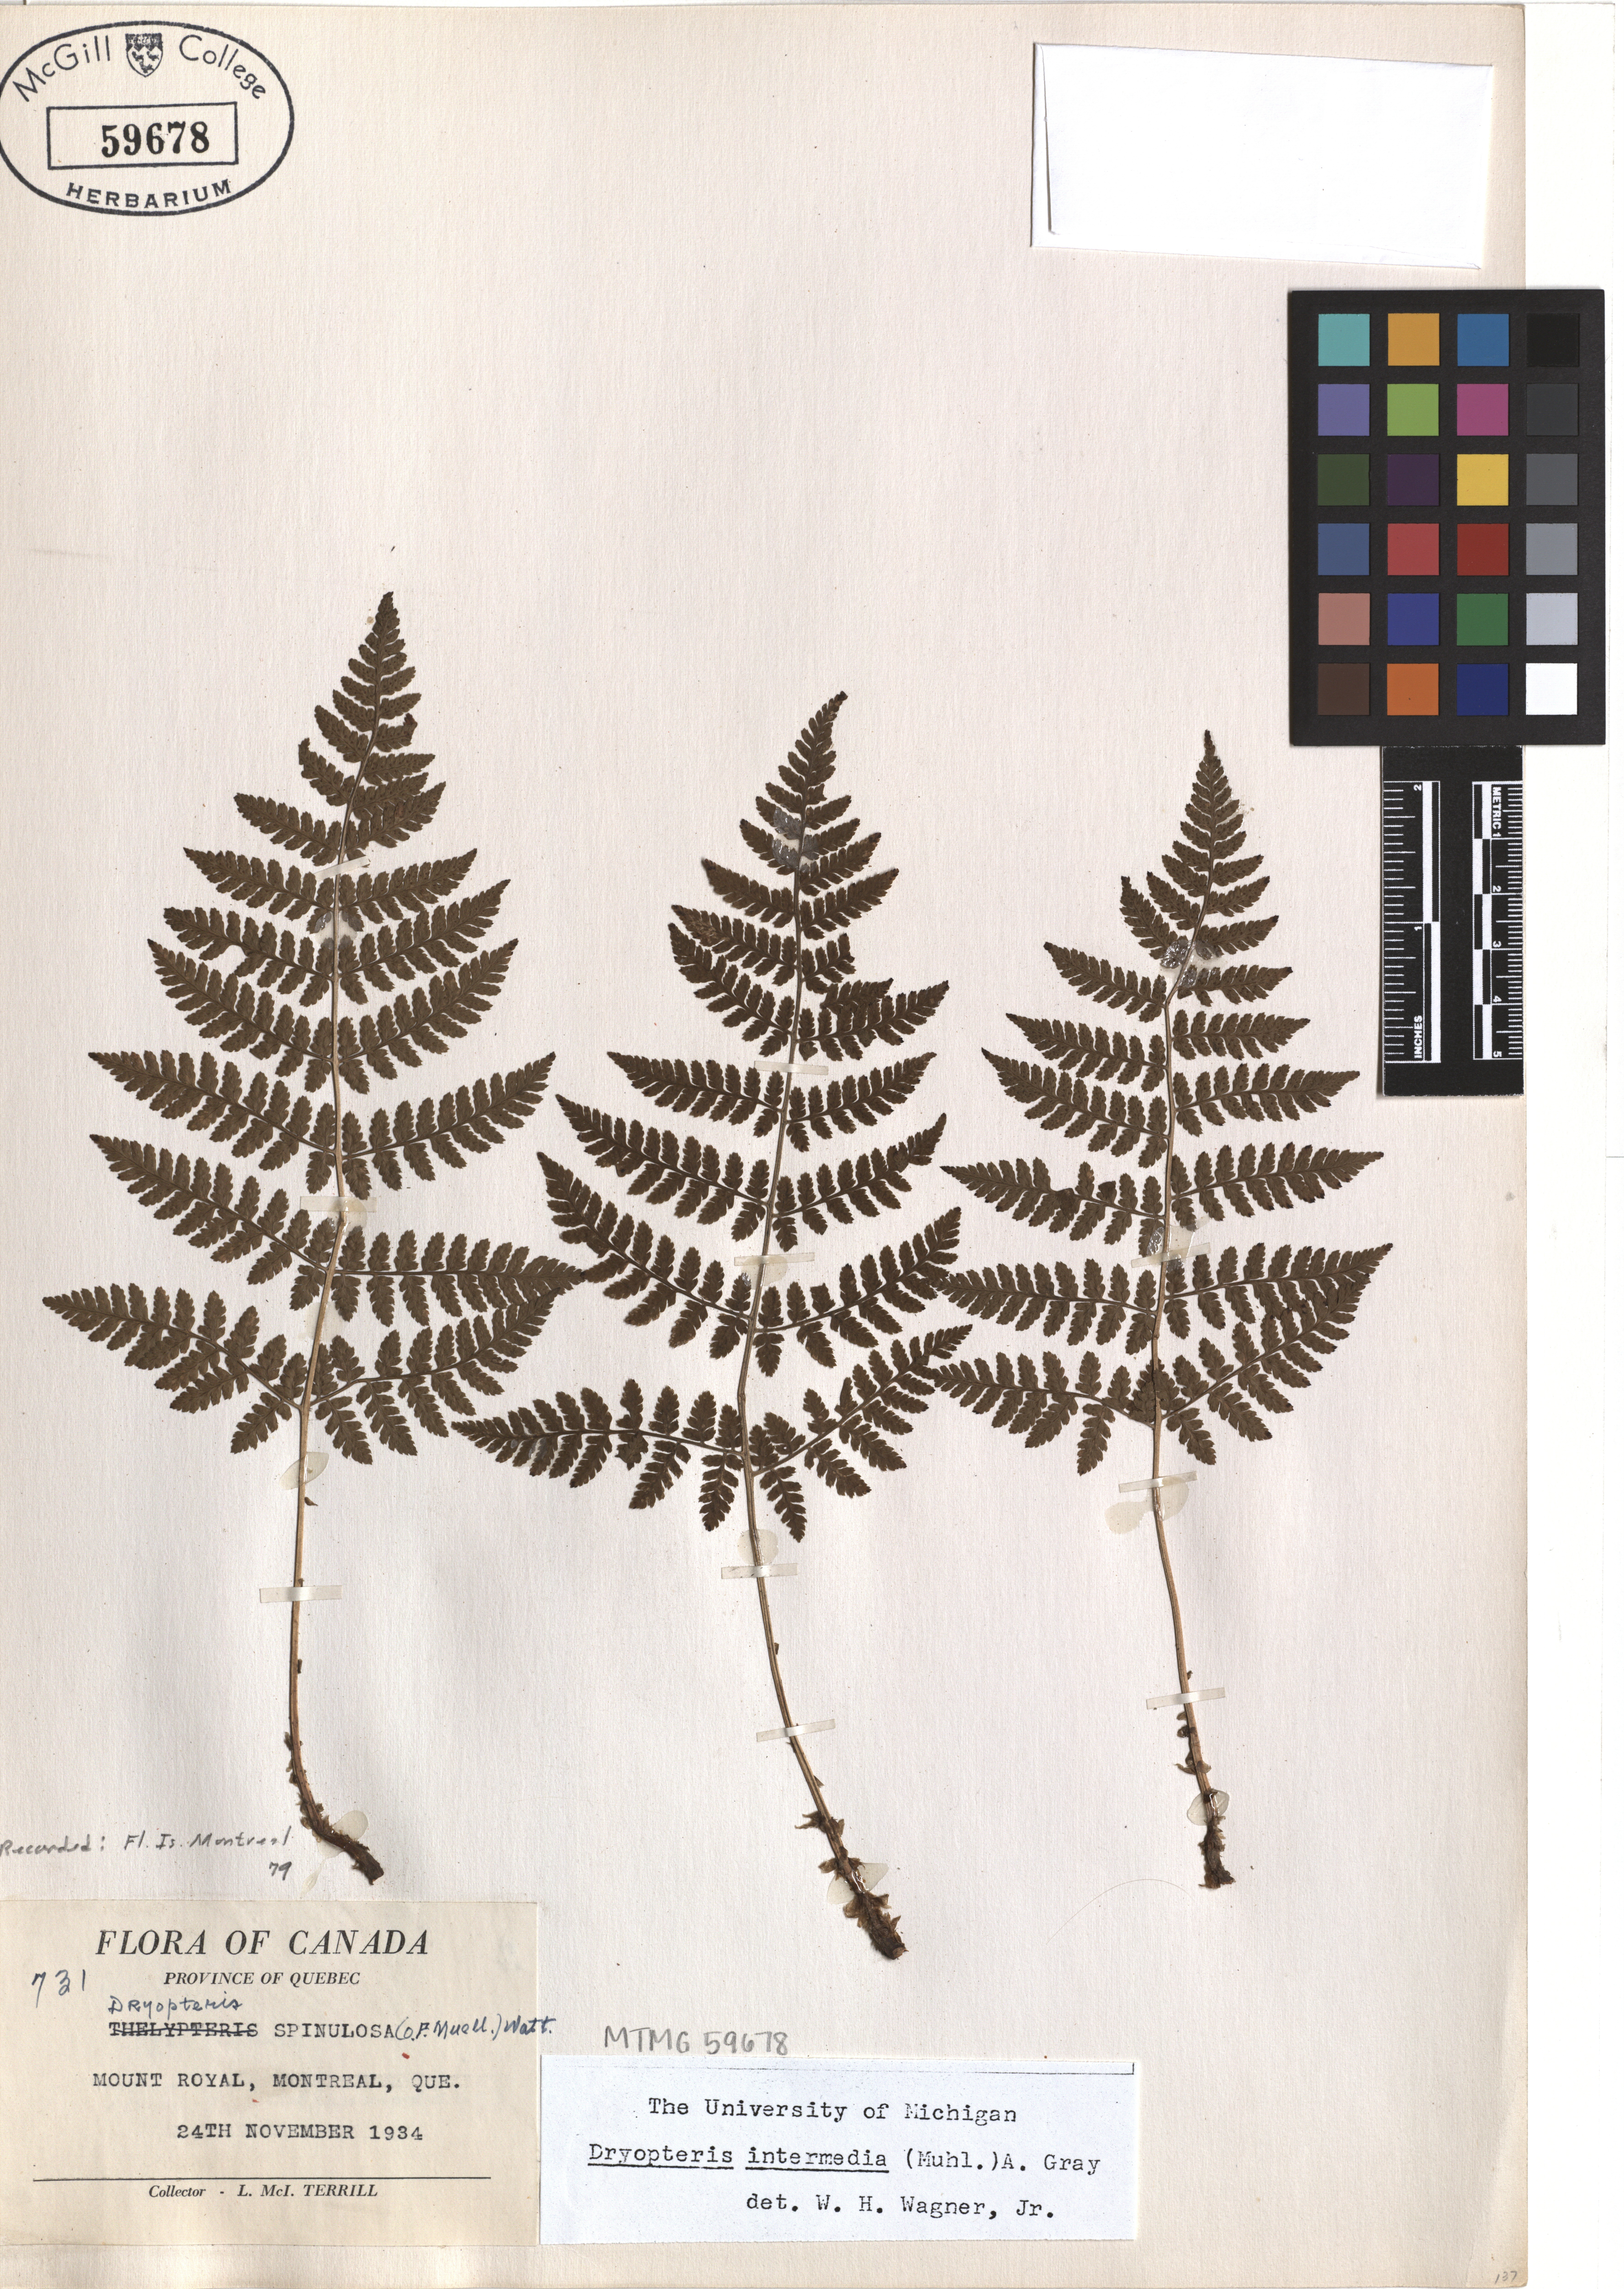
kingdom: Plantae
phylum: Tracheophyta
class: Polypodiopsida
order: Polypodiales
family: Dryopteridaceae
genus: Dryopteris
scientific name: Dryopteris intermedia
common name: Evergreen wood fern
